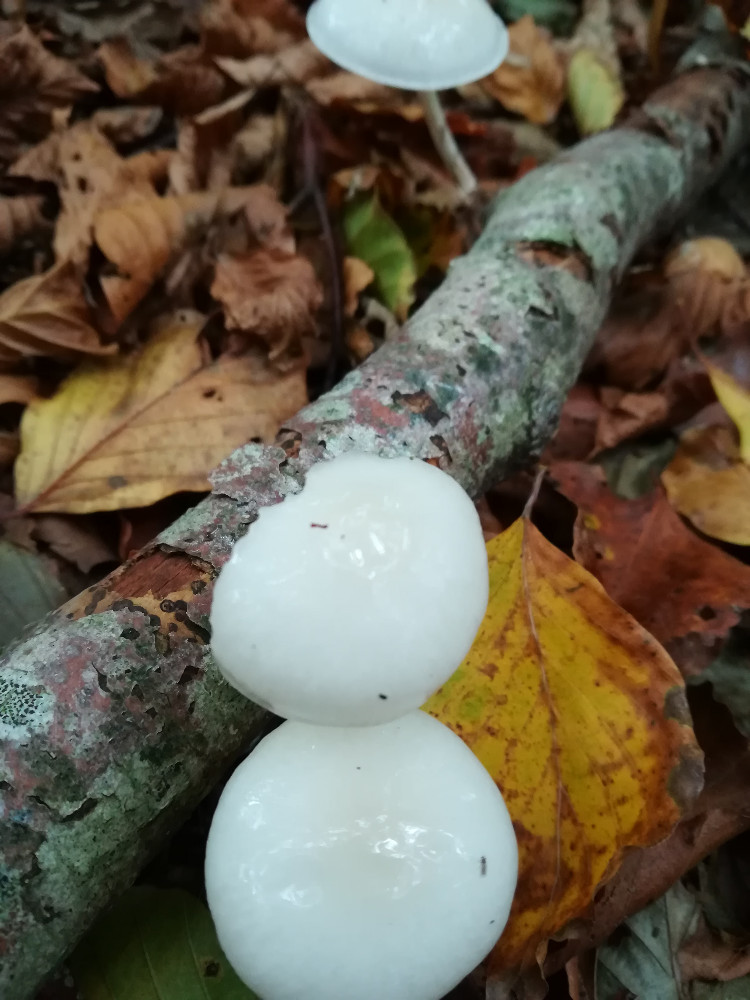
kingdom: Fungi
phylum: Basidiomycota
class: Agaricomycetes
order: Agaricales
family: Physalacriaceae
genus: Mucidula
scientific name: Mucidula mucida
